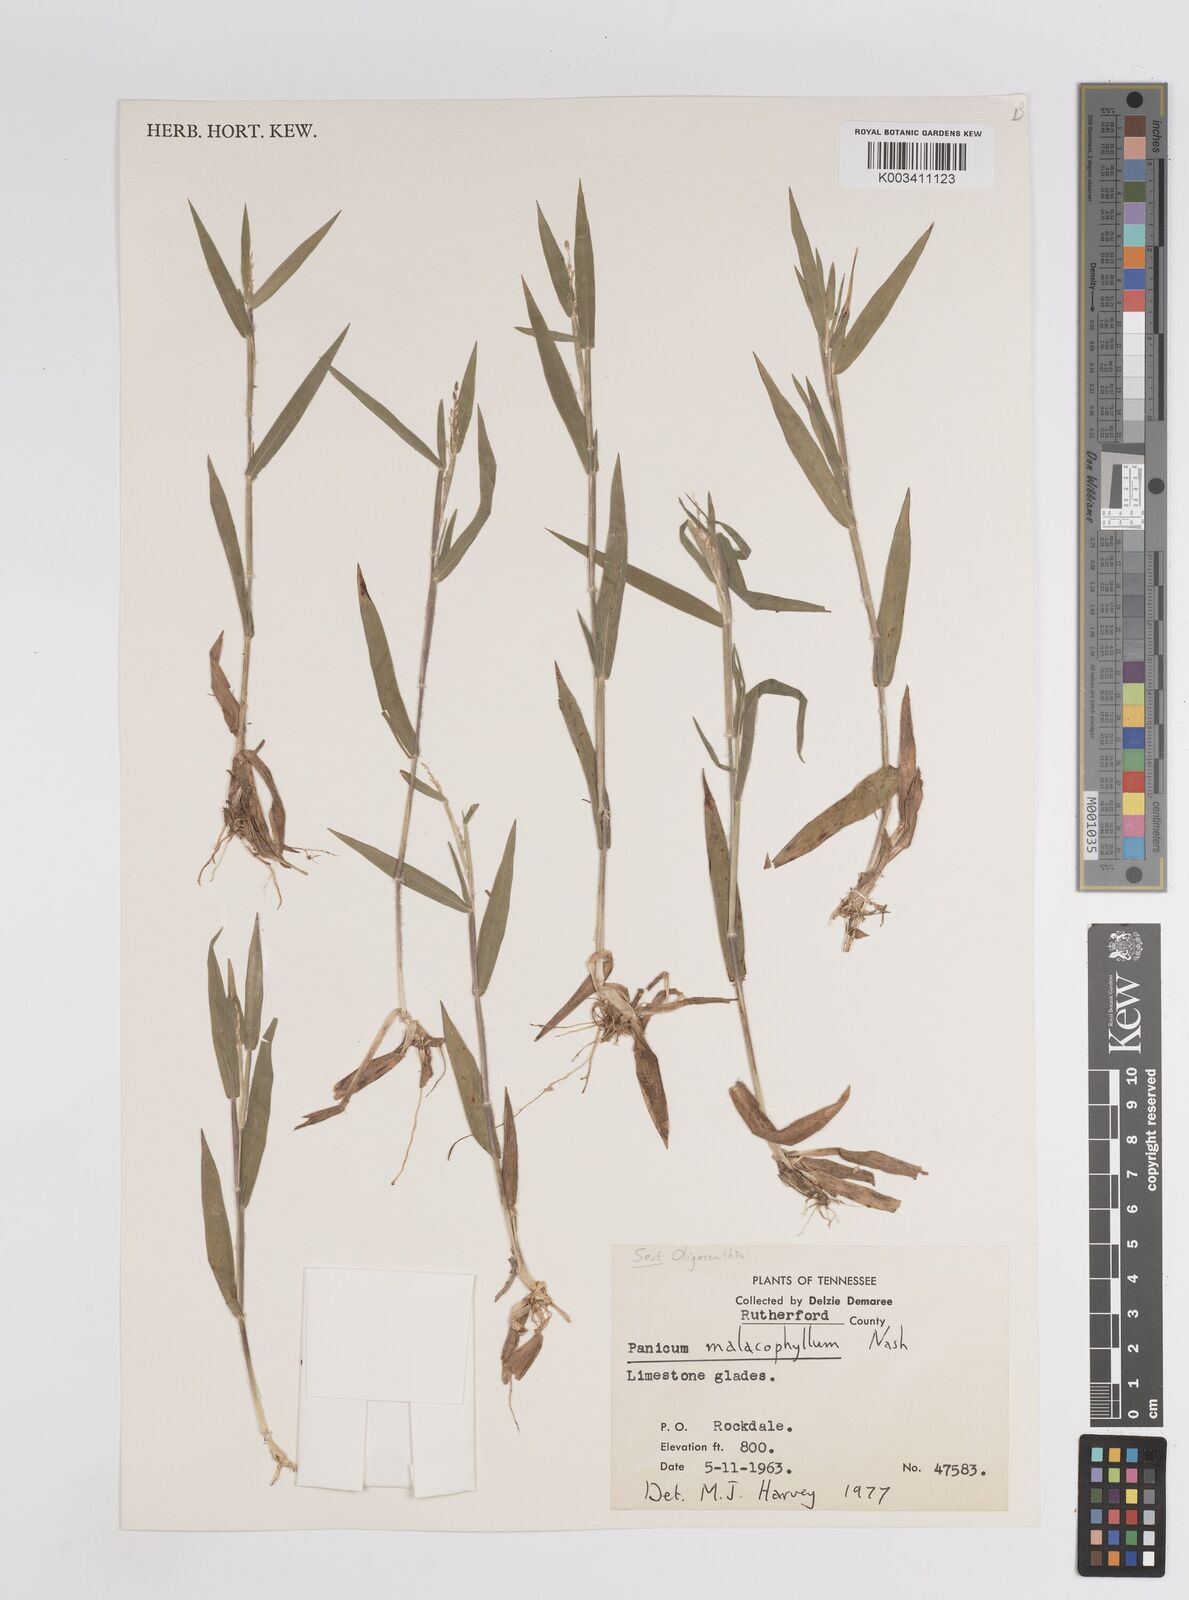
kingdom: Plantae
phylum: Tracheophyta
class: Liliopsida
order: Poales
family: Poaceae
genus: Dichanthelium
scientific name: Dichanthelium malacophyllum
